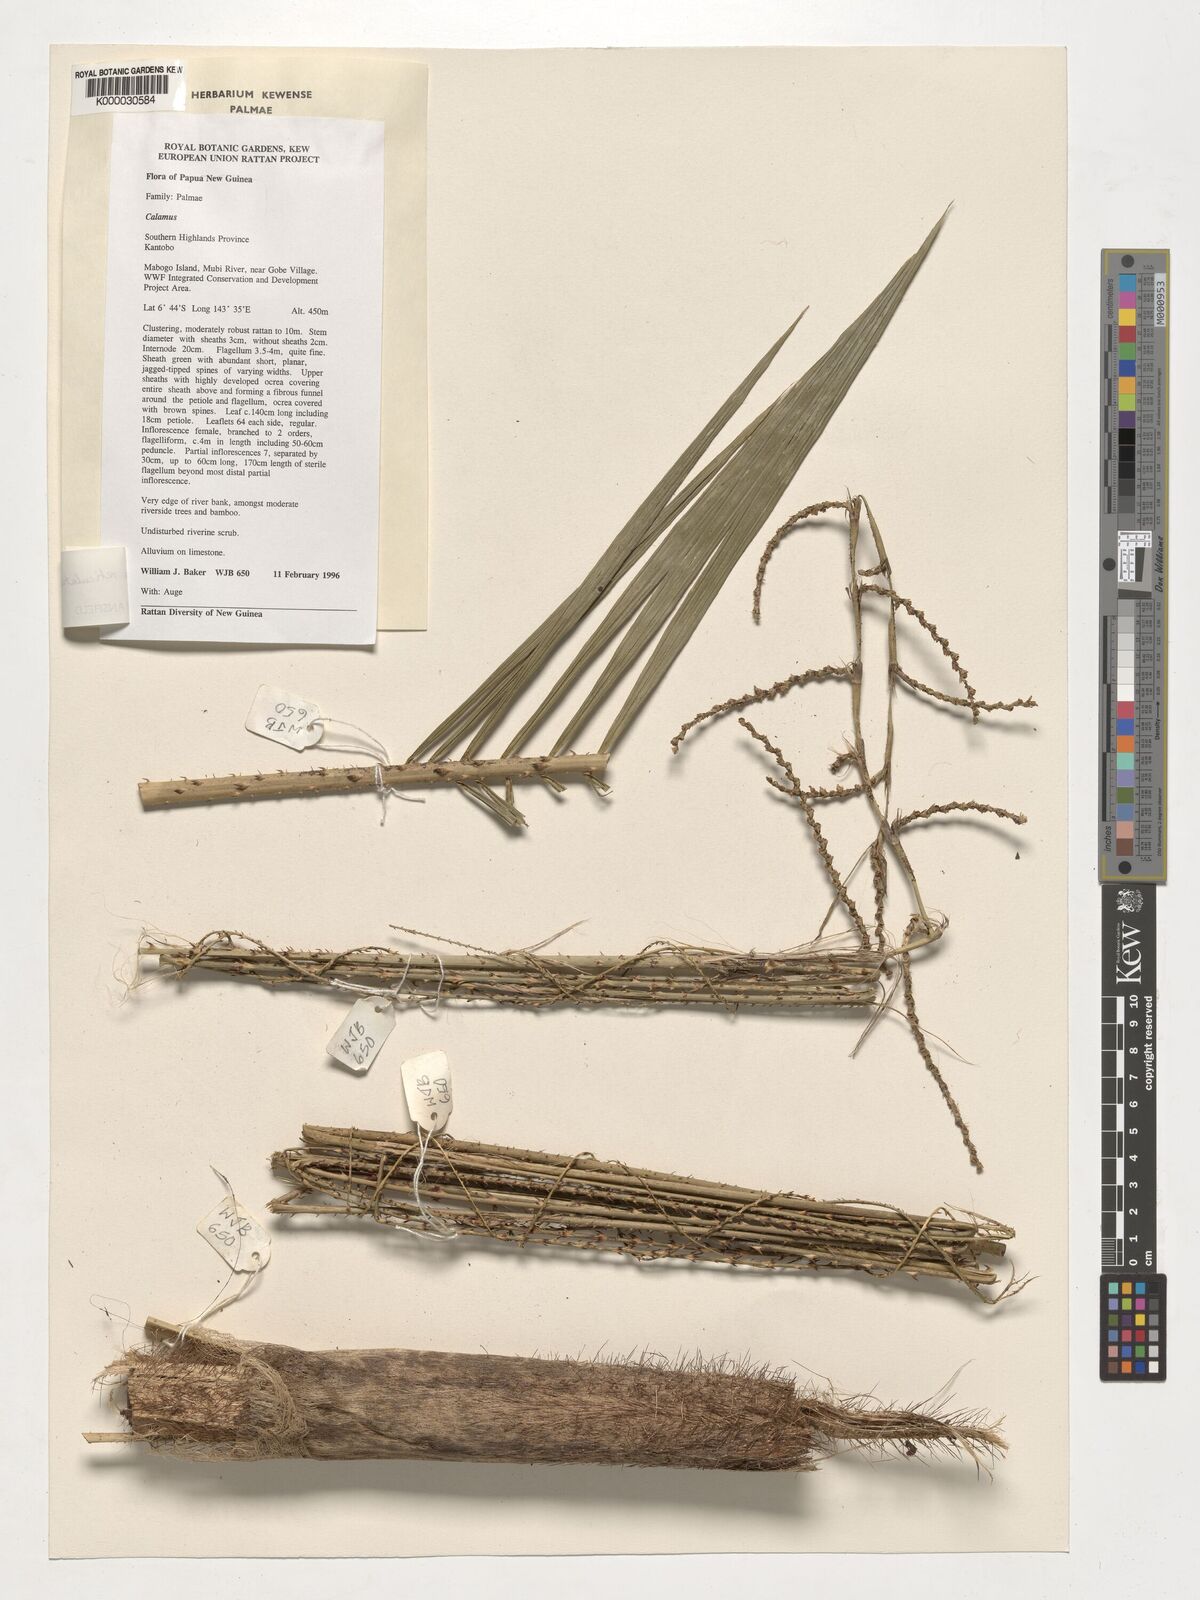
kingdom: Plantae
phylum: Tracheophyta
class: Liliopsida
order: Arecales
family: Arecaceae
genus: Calamus
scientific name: Calamus reticulatus
